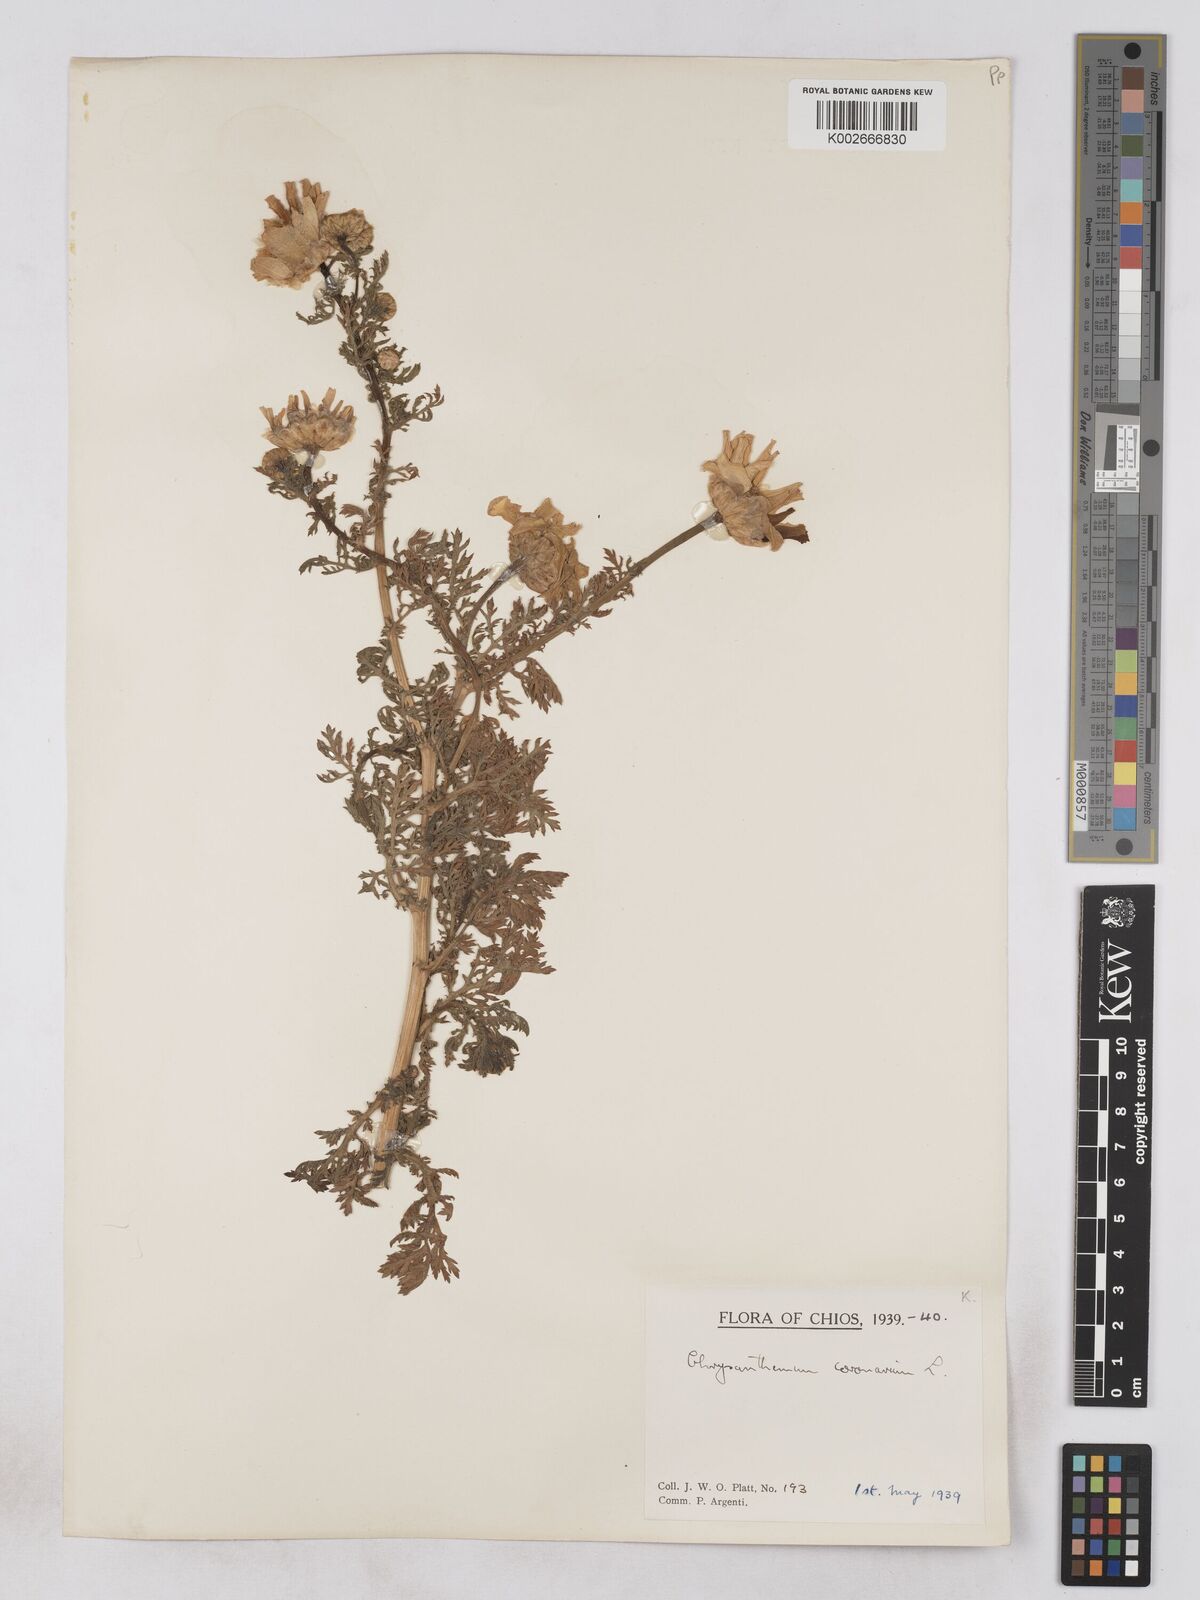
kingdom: Plantae
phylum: Tracheophyta
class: Magnoliopsida
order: Asterales
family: Asteraceae
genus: Glebionis
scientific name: Glebionis coronaria
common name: Crowndaisy
